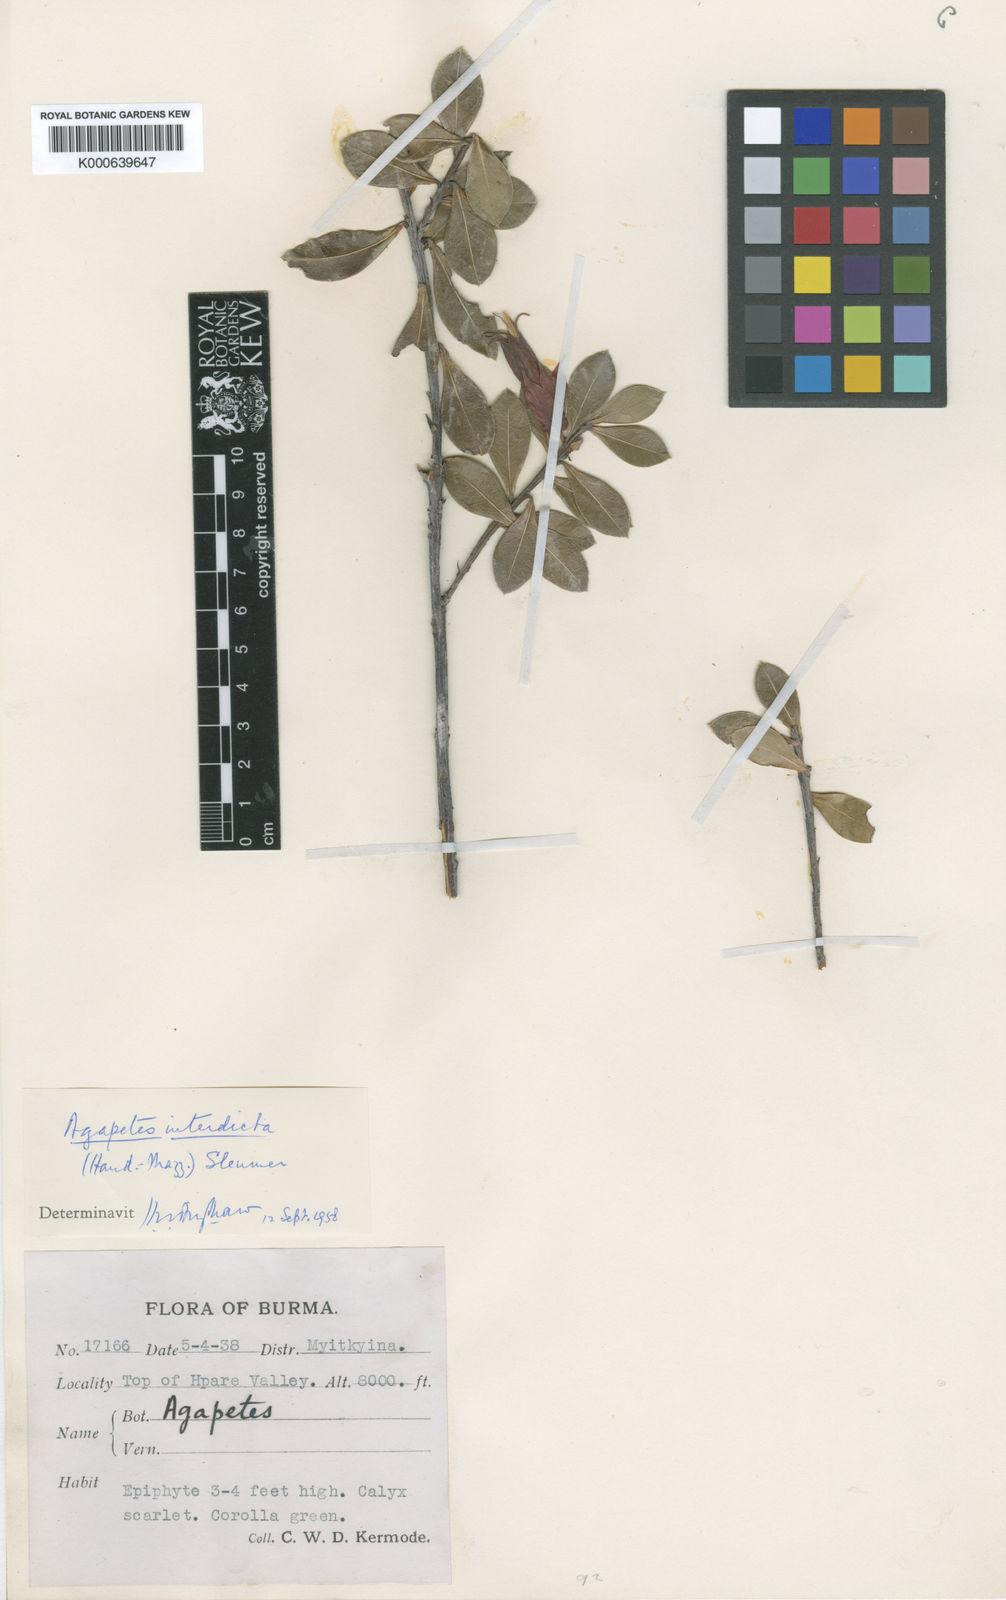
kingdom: Plantae
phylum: Tracheophyta
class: Magnoliopsida
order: Ericales
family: Ericaceae
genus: Agapetes
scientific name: Agapetes interdicta
